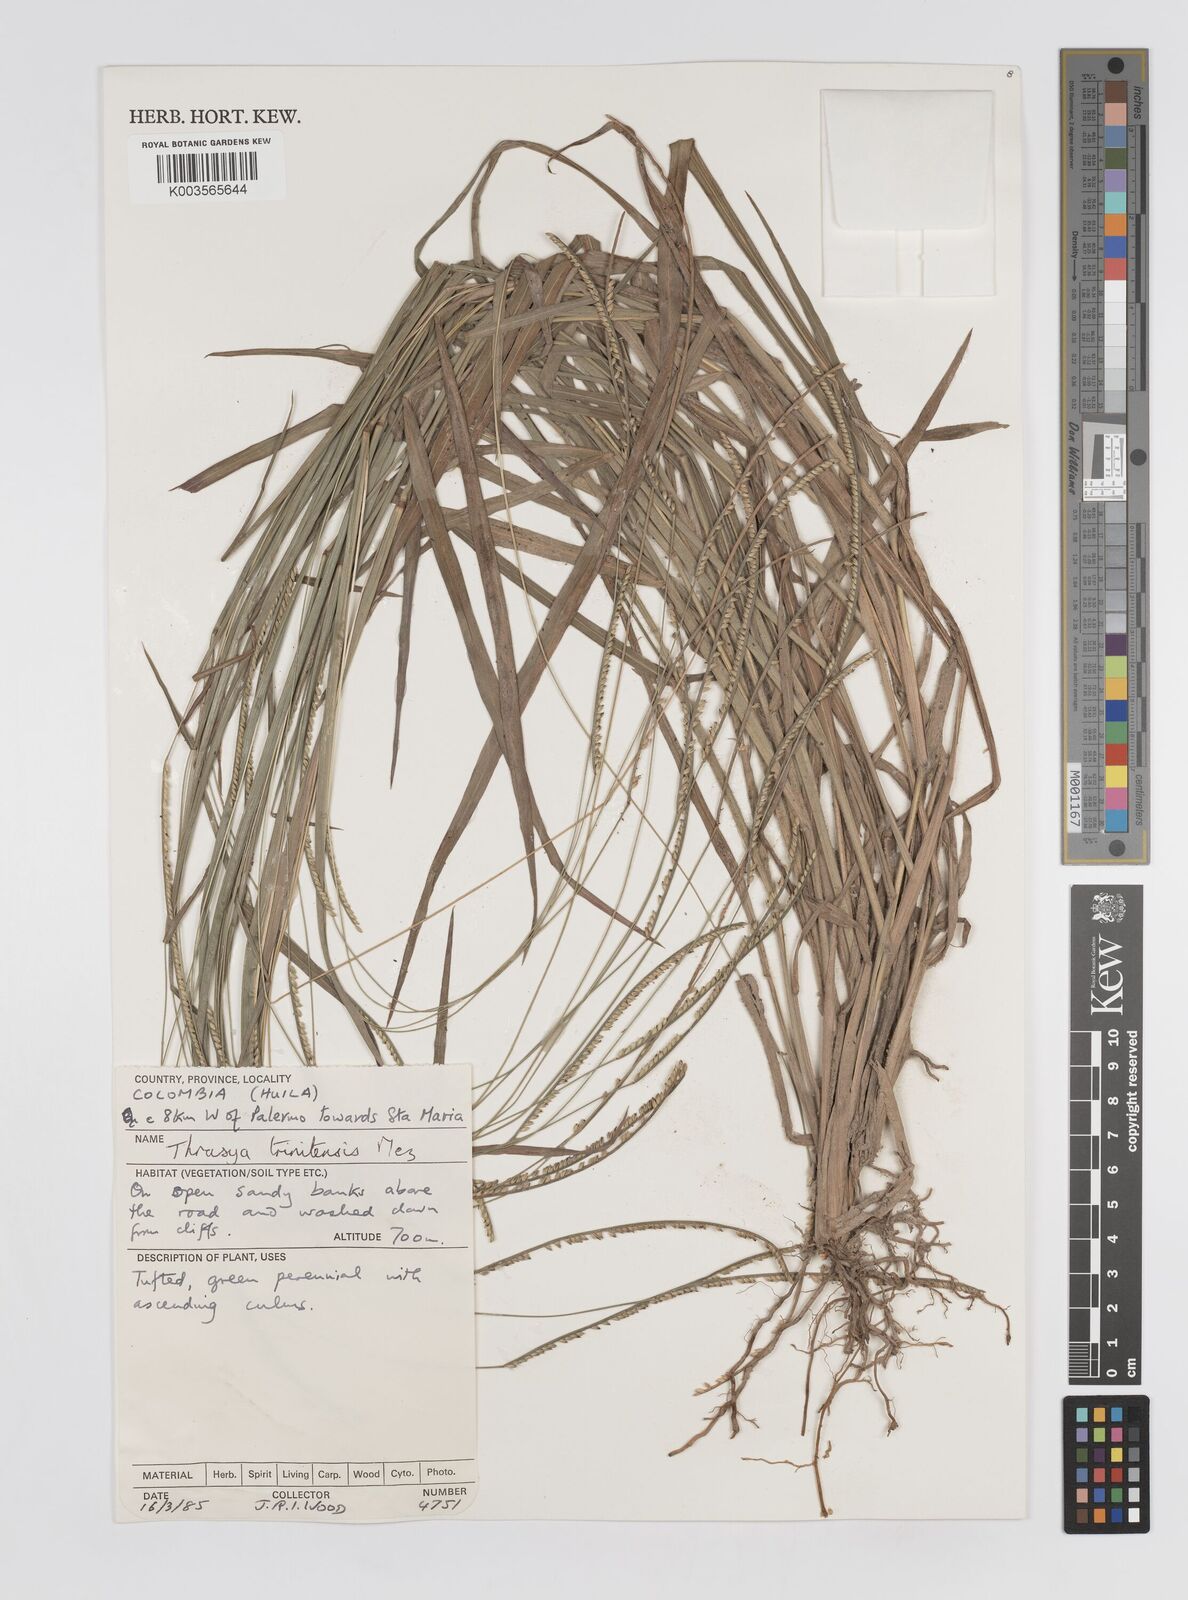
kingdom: Plantae
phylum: Tracheophyta
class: Liliopsida
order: Poales
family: Poaceae
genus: Paspalum
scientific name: Paspalum campylostachyum
